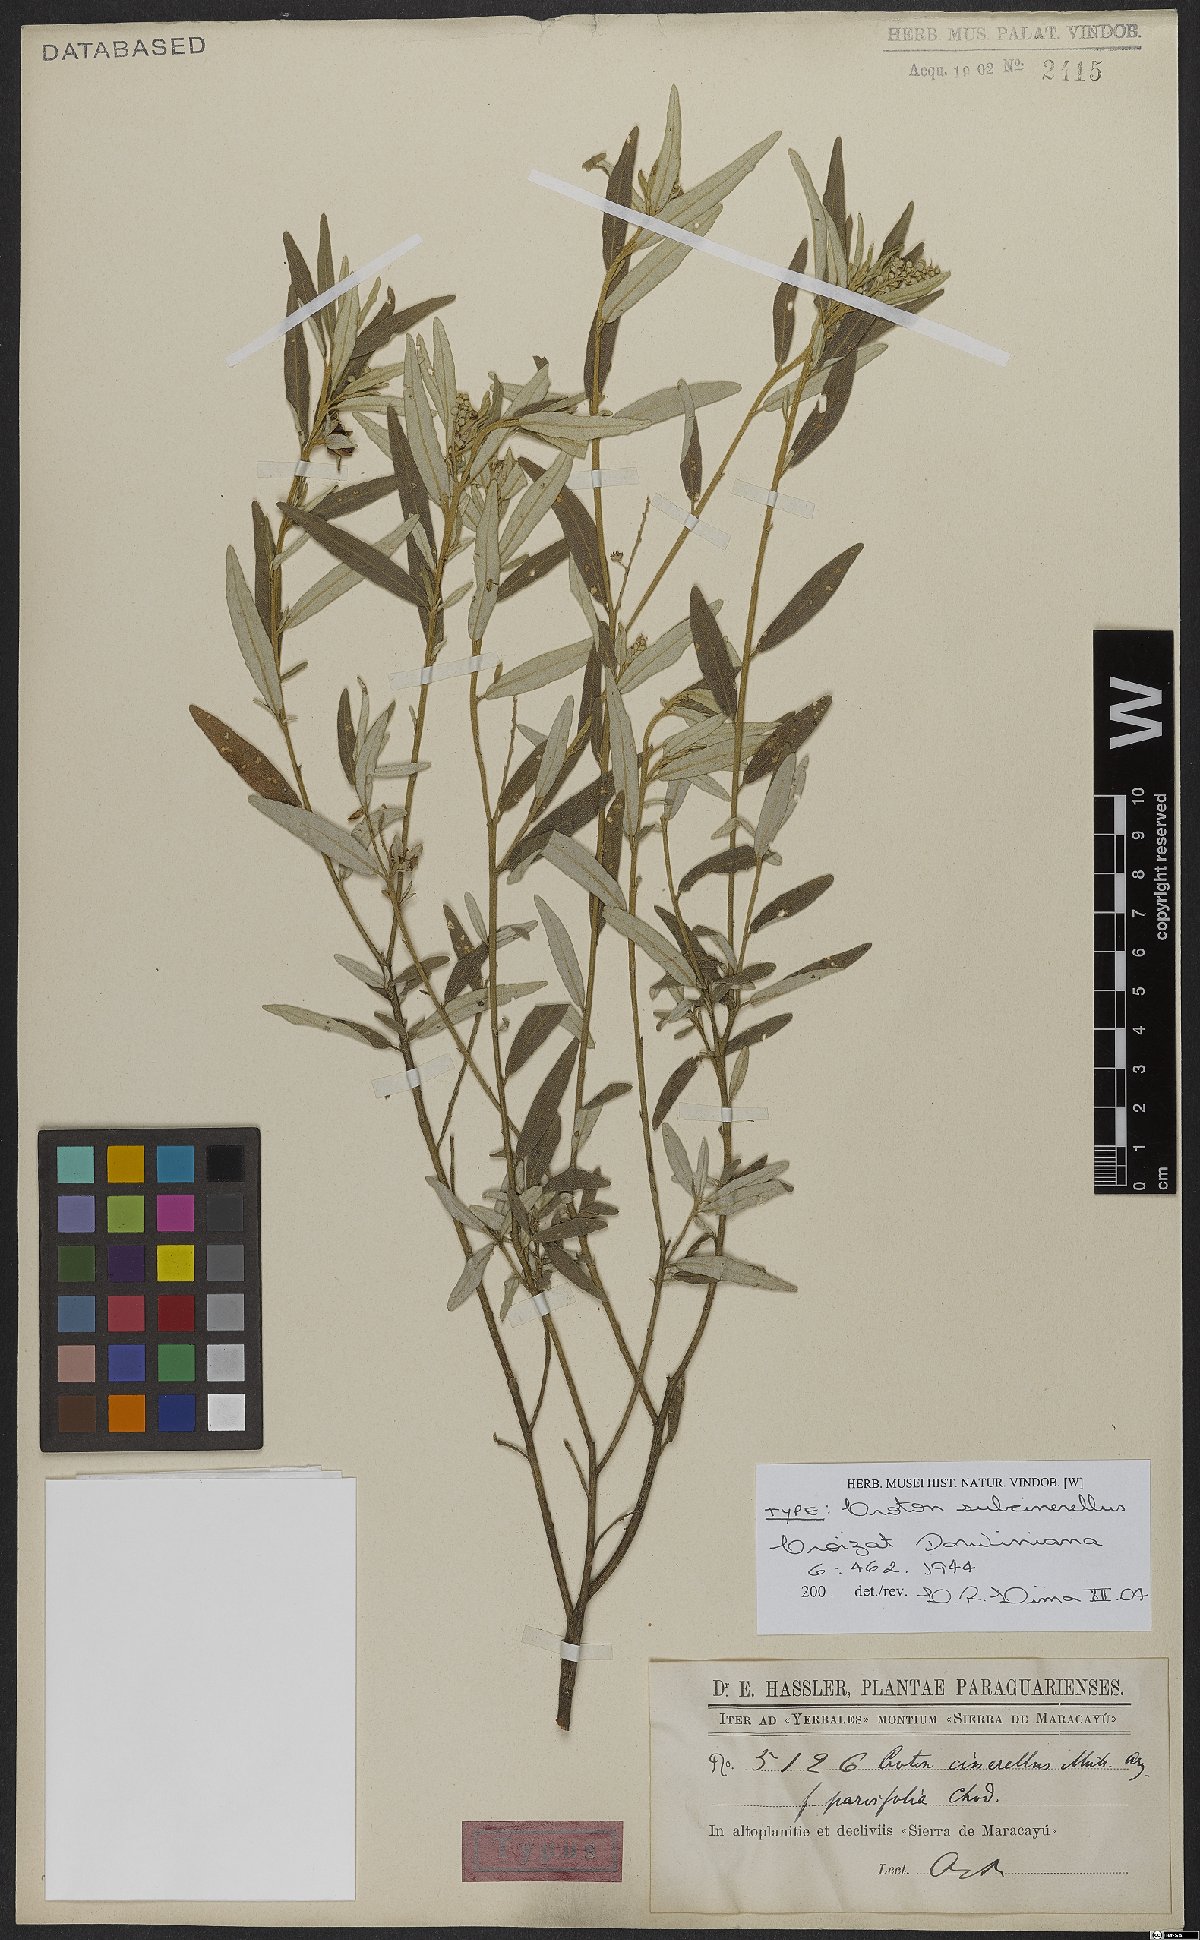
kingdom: Plantae
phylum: Tracheophyta
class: Magnoliopsida
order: Malpighiales
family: Euphorbiaceae
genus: Croton
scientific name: Croton subcinerellus
